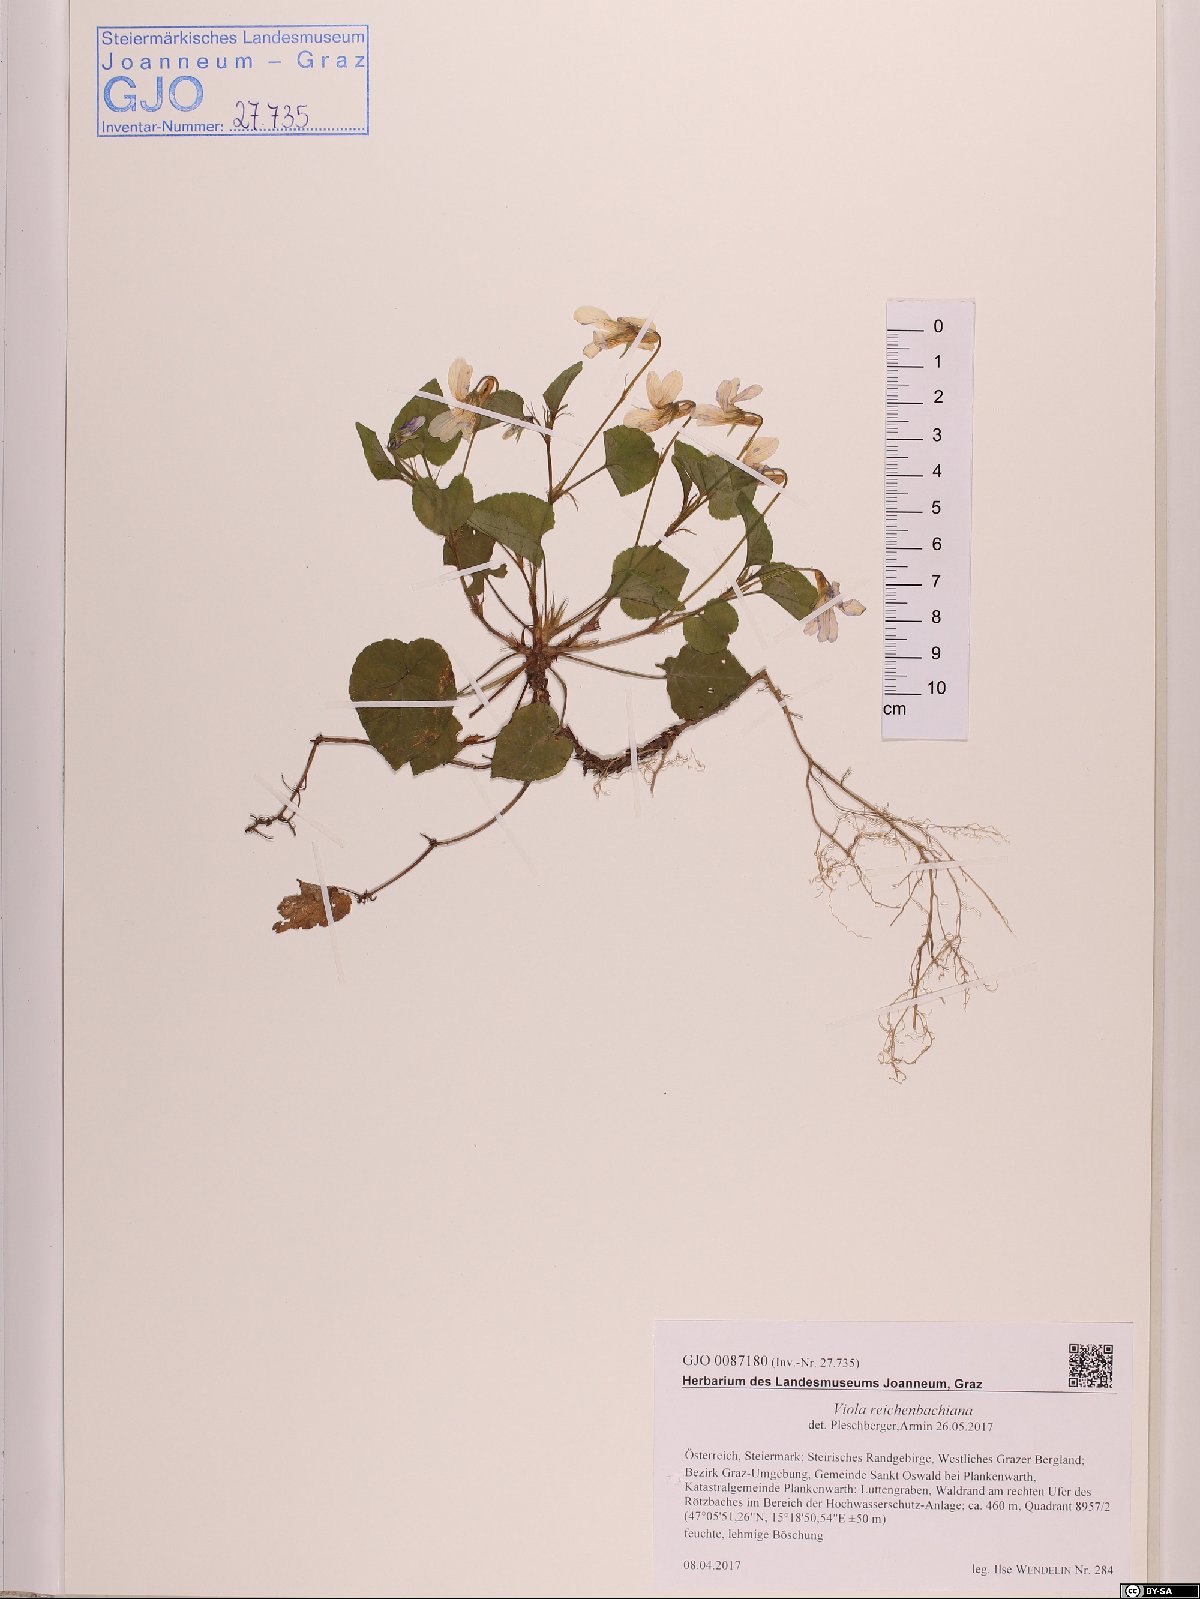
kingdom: Plantae
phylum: Tracheophyta
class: Magnoliopsida
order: Malpighiales
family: Violaceae
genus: Viola
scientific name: Viola reichenbachiana
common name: Early dog-violet
